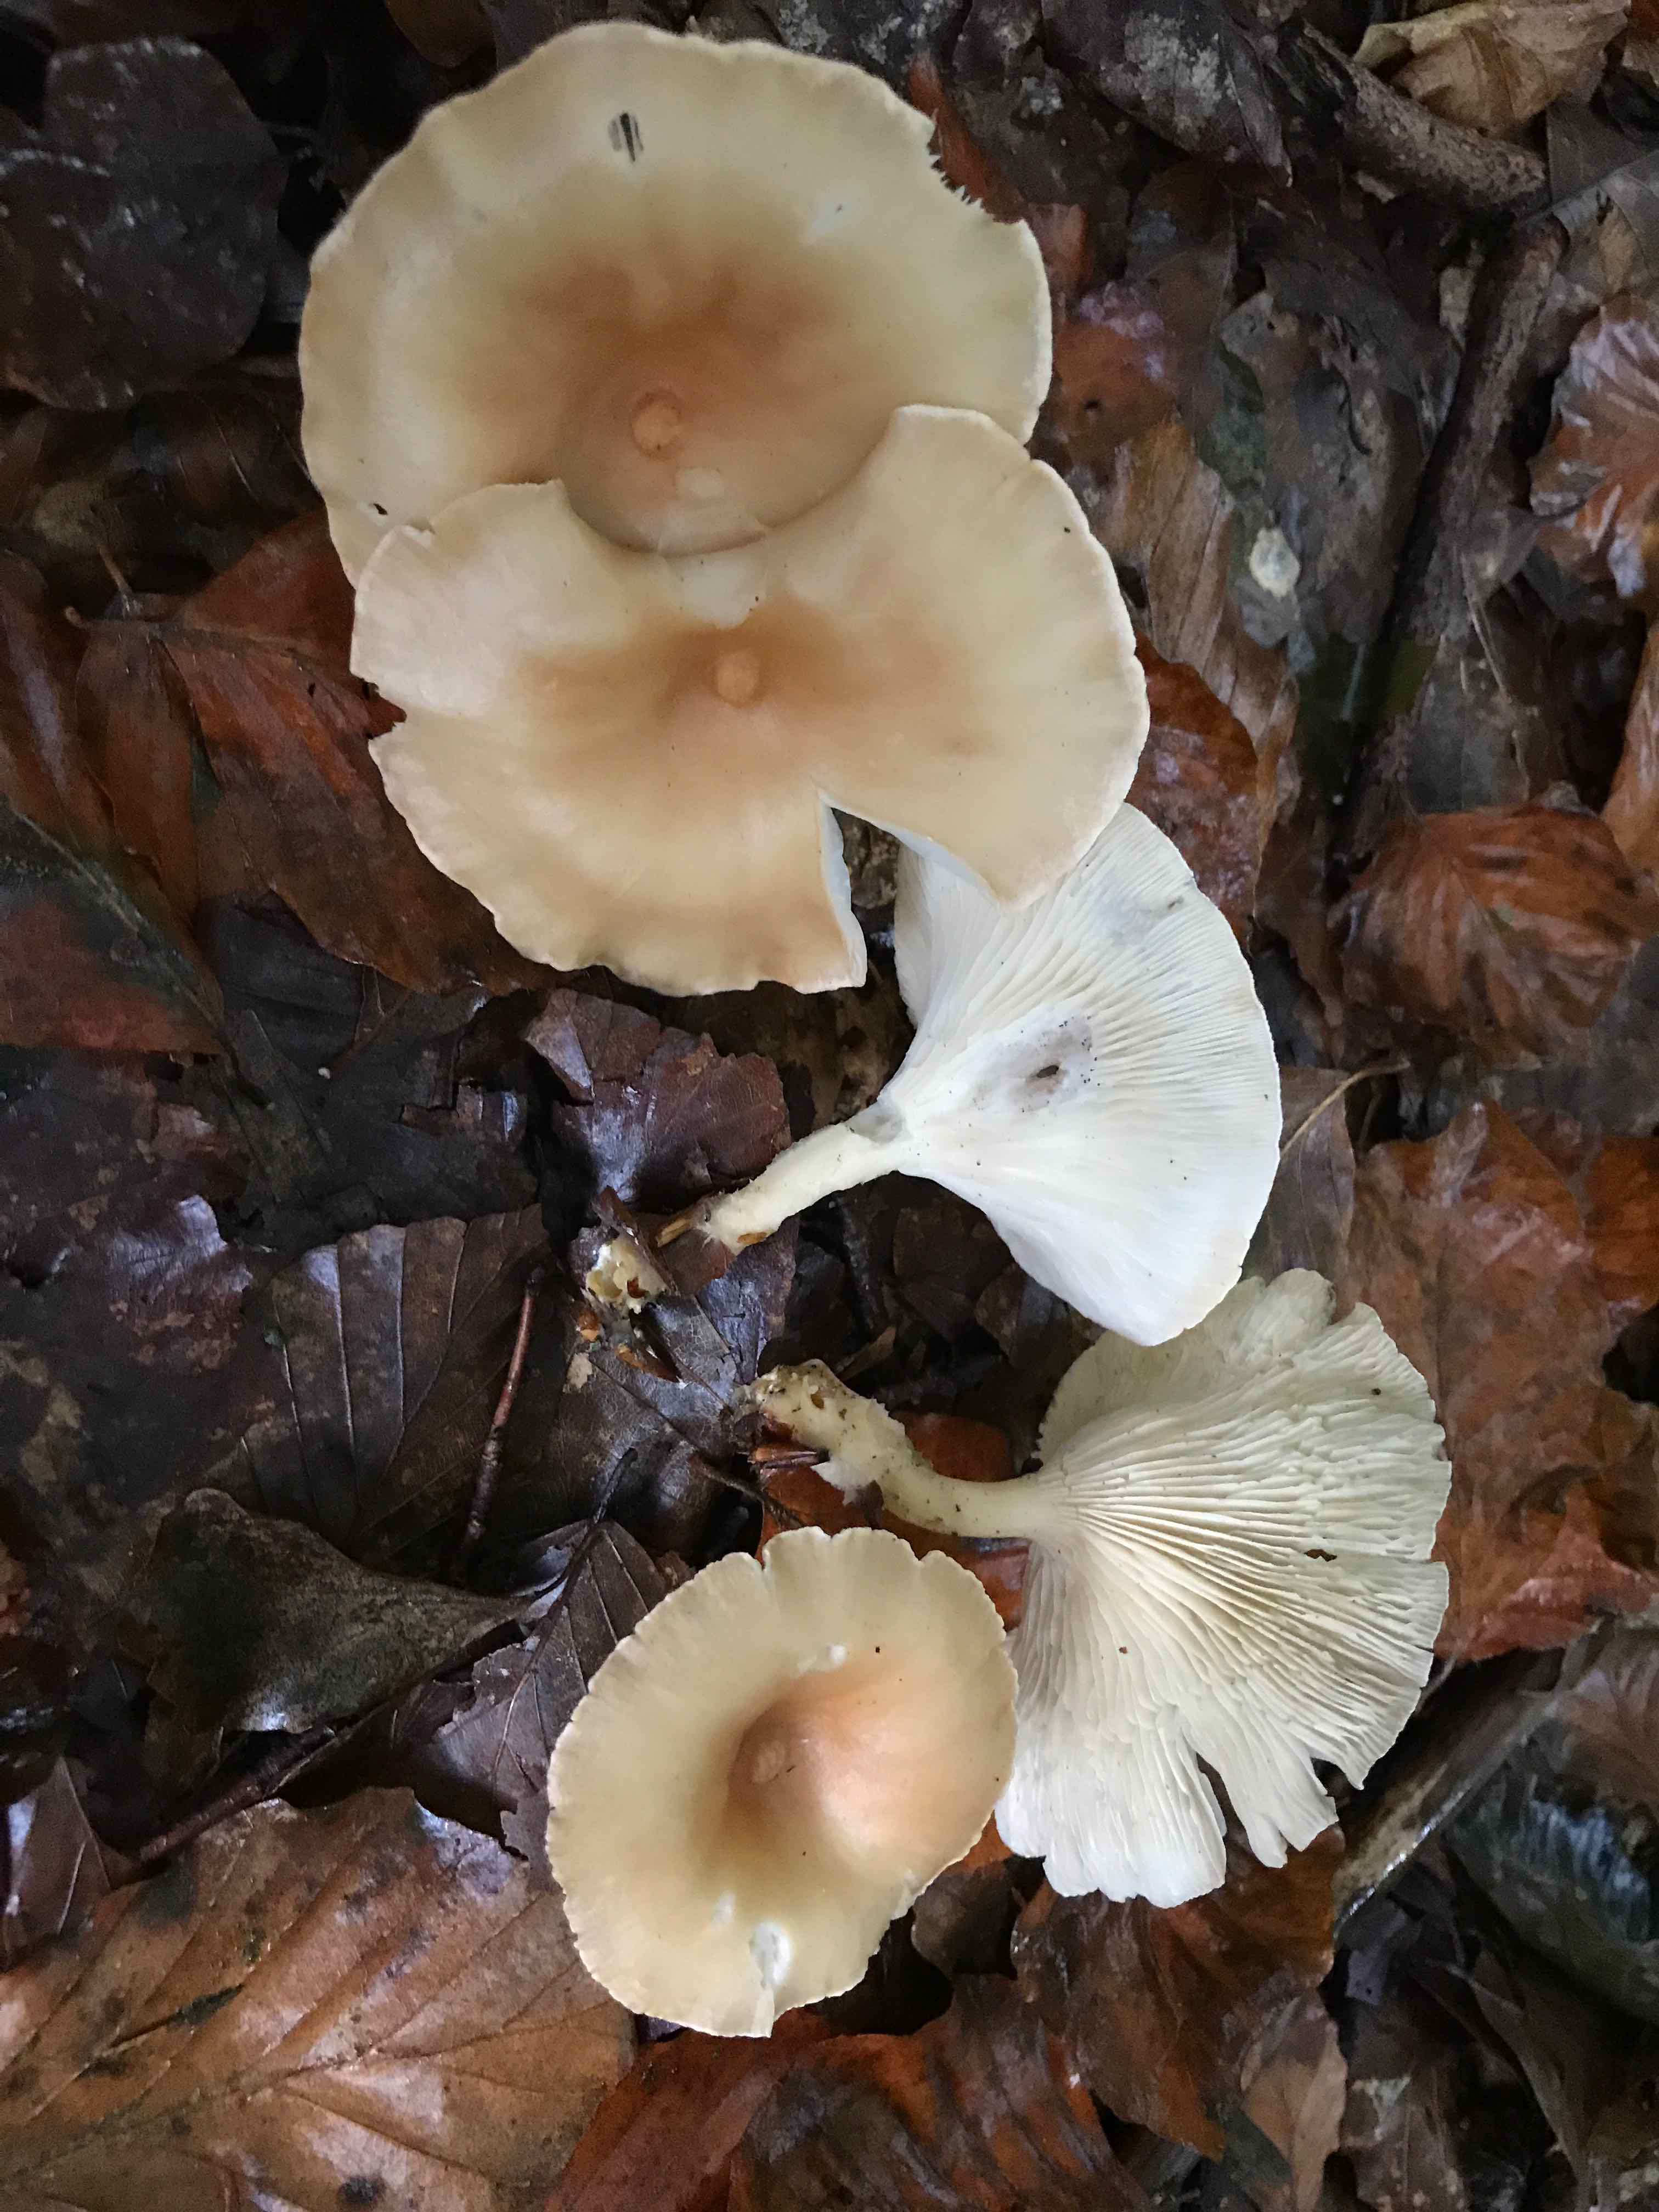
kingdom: Fungi
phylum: Basidiomycota
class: Agaricomycetes
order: Agaricales
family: Tricholomataceae
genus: Infundibulicybe
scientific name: Infundibulicybe gibba
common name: almindelig tragthat
